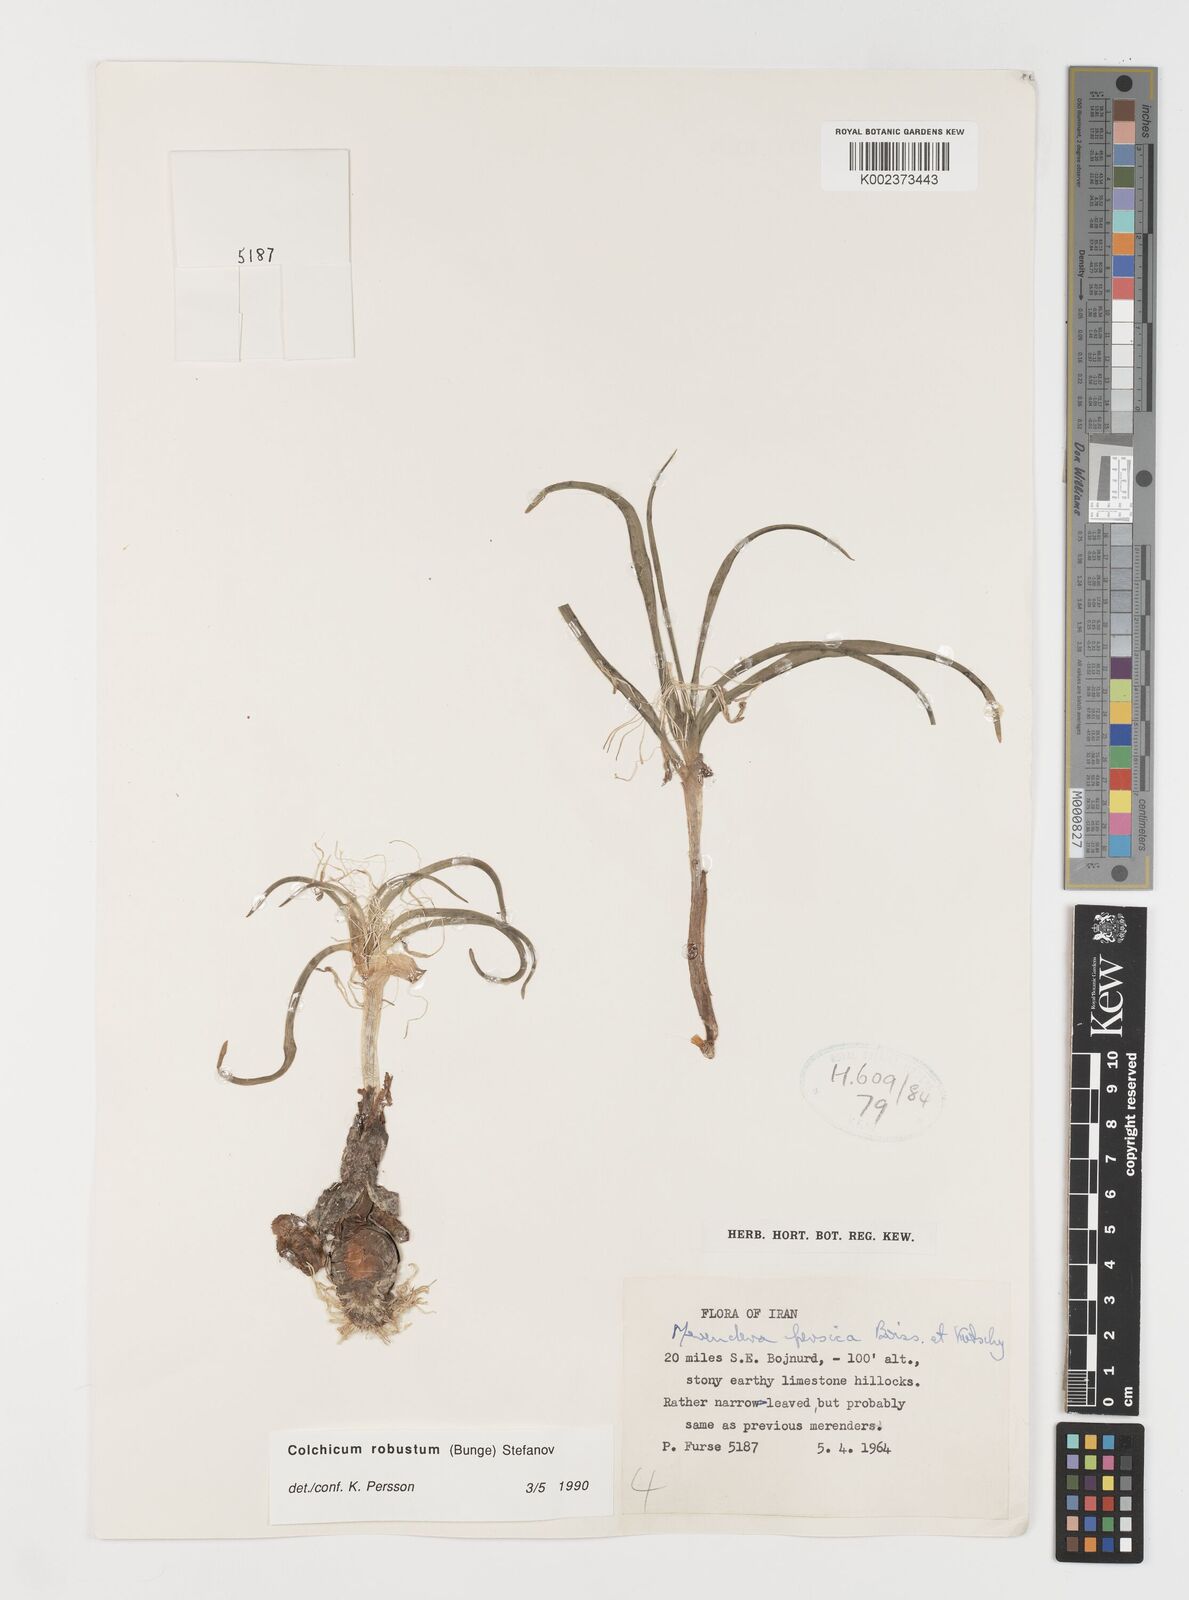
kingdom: Plantae
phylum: Tracheophyta
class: Liliopsida
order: Liliales
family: Colchicaceae
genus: Colchicum
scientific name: Colchicum robustum
